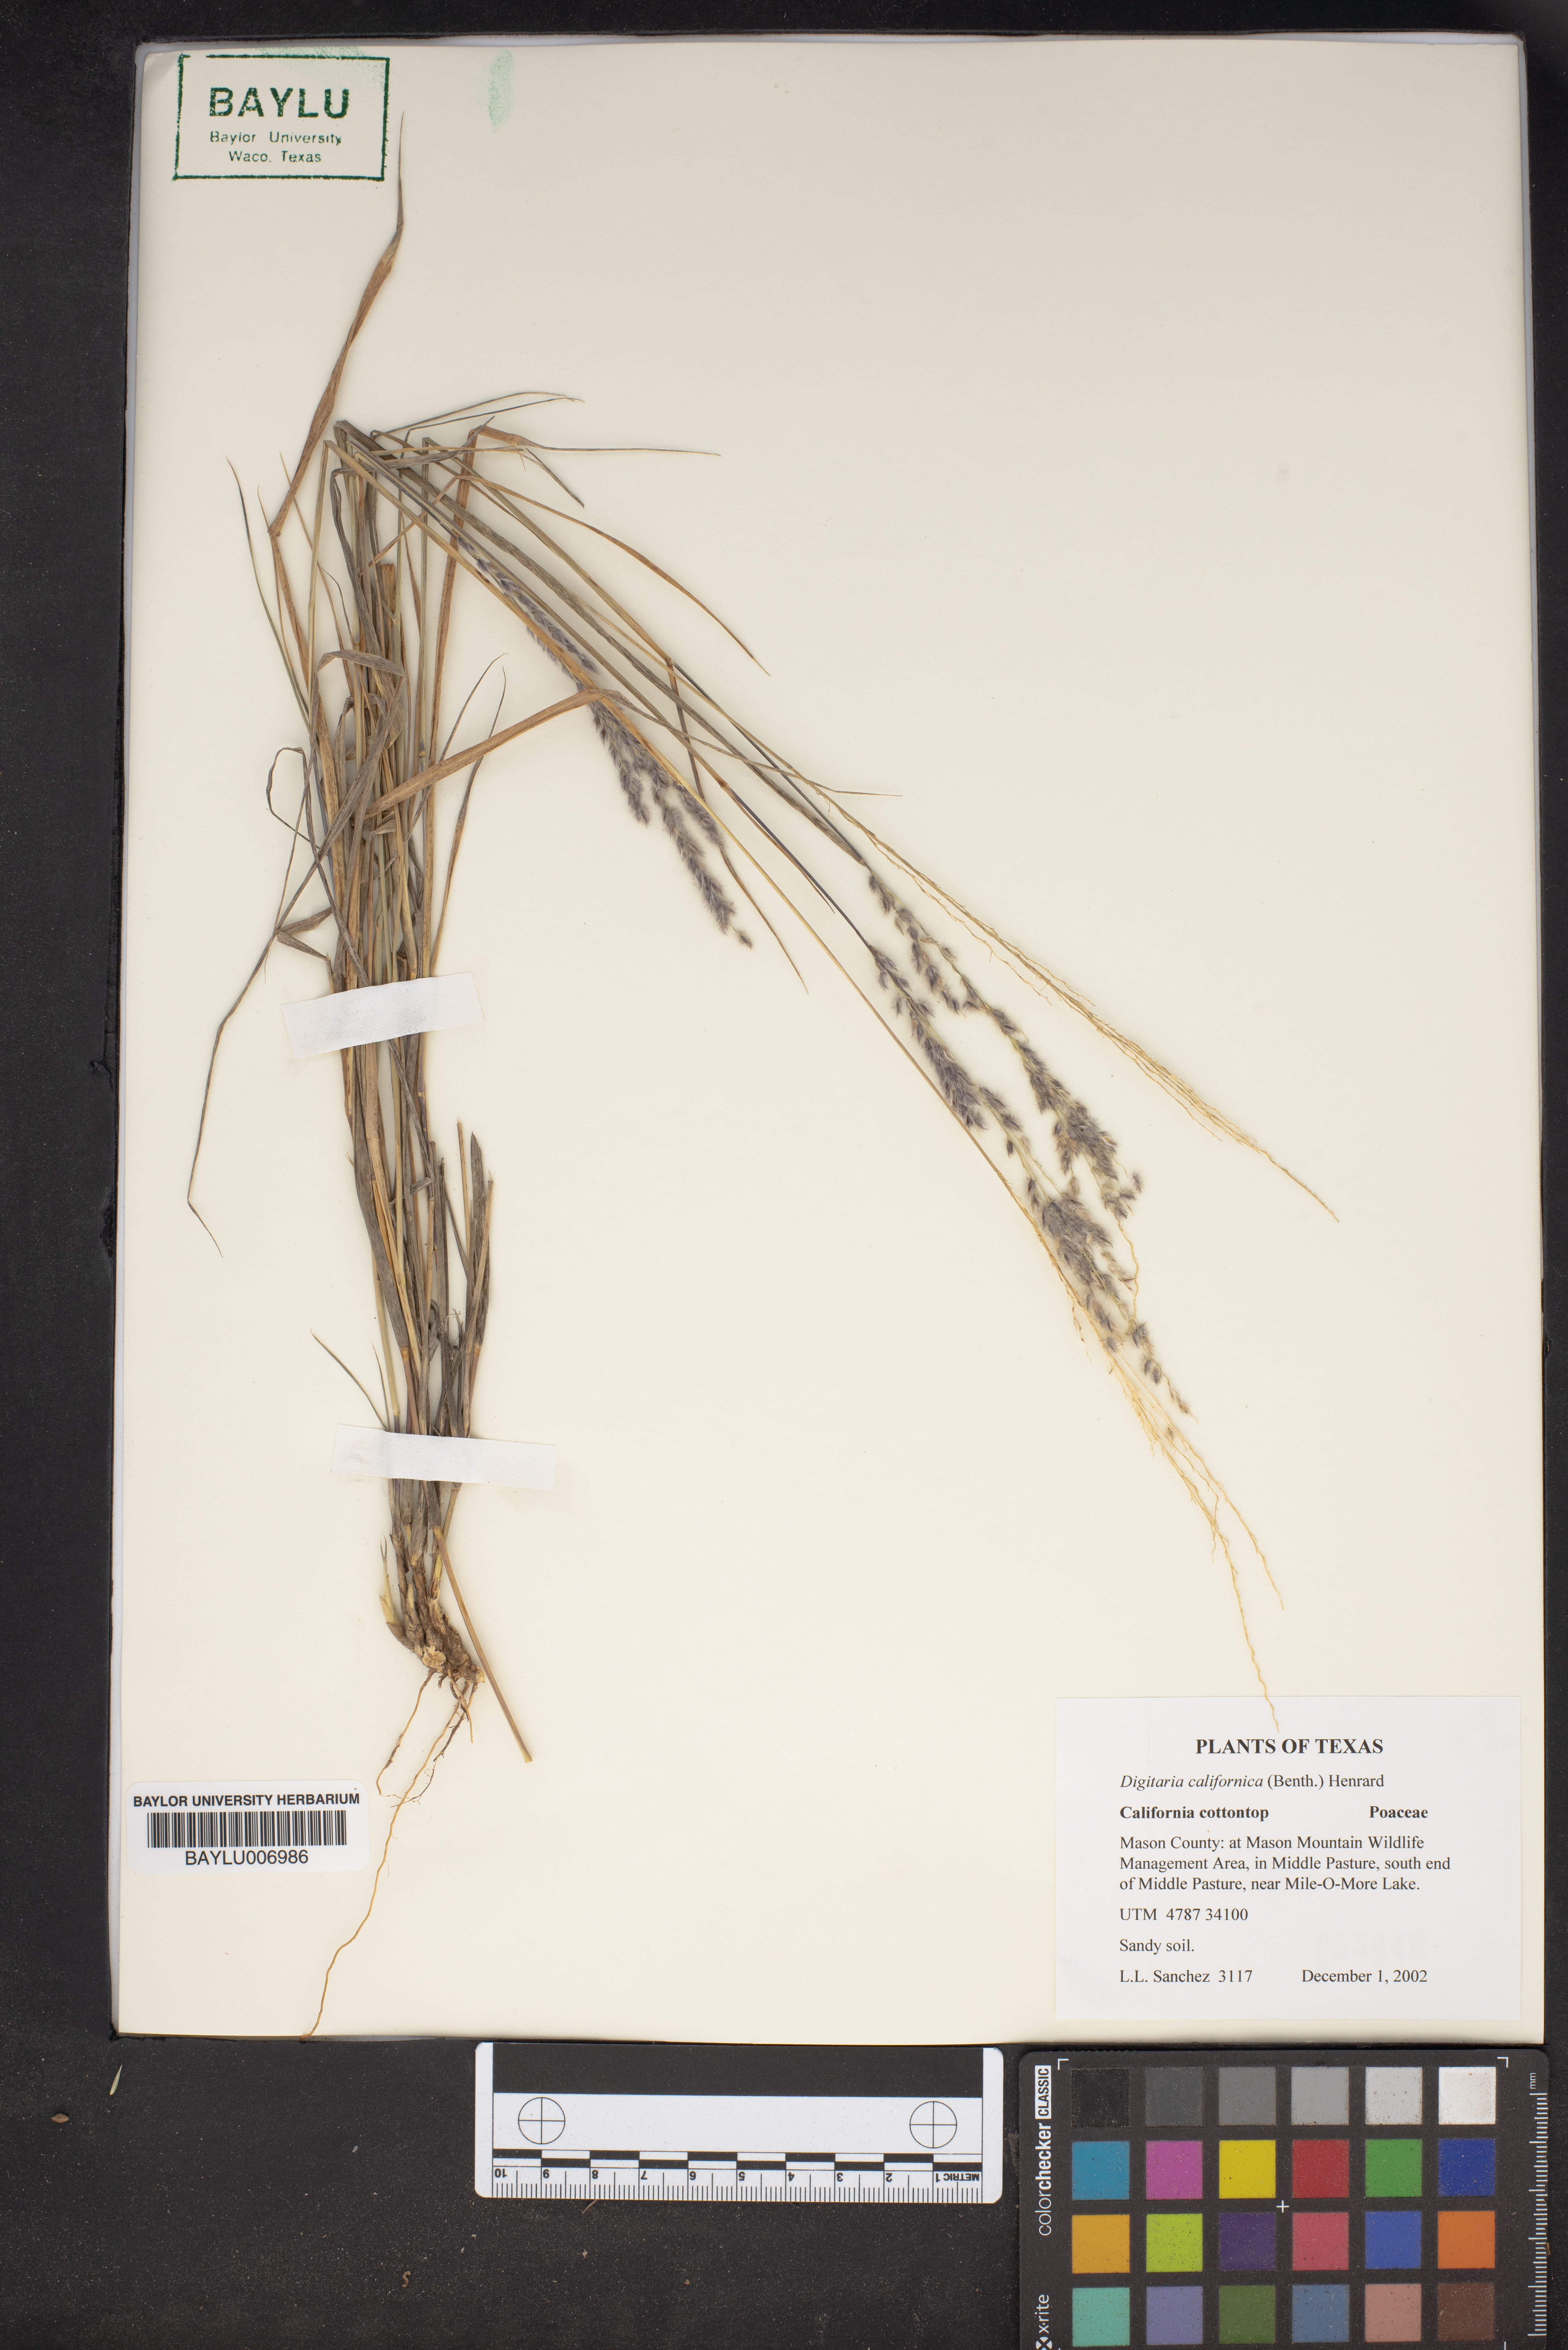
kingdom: Plantae
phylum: Tracheophyta
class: Liliopsida
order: Poales
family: Poaceae
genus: Digitaria
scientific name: Digitaria californica
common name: Arizona cottontop
